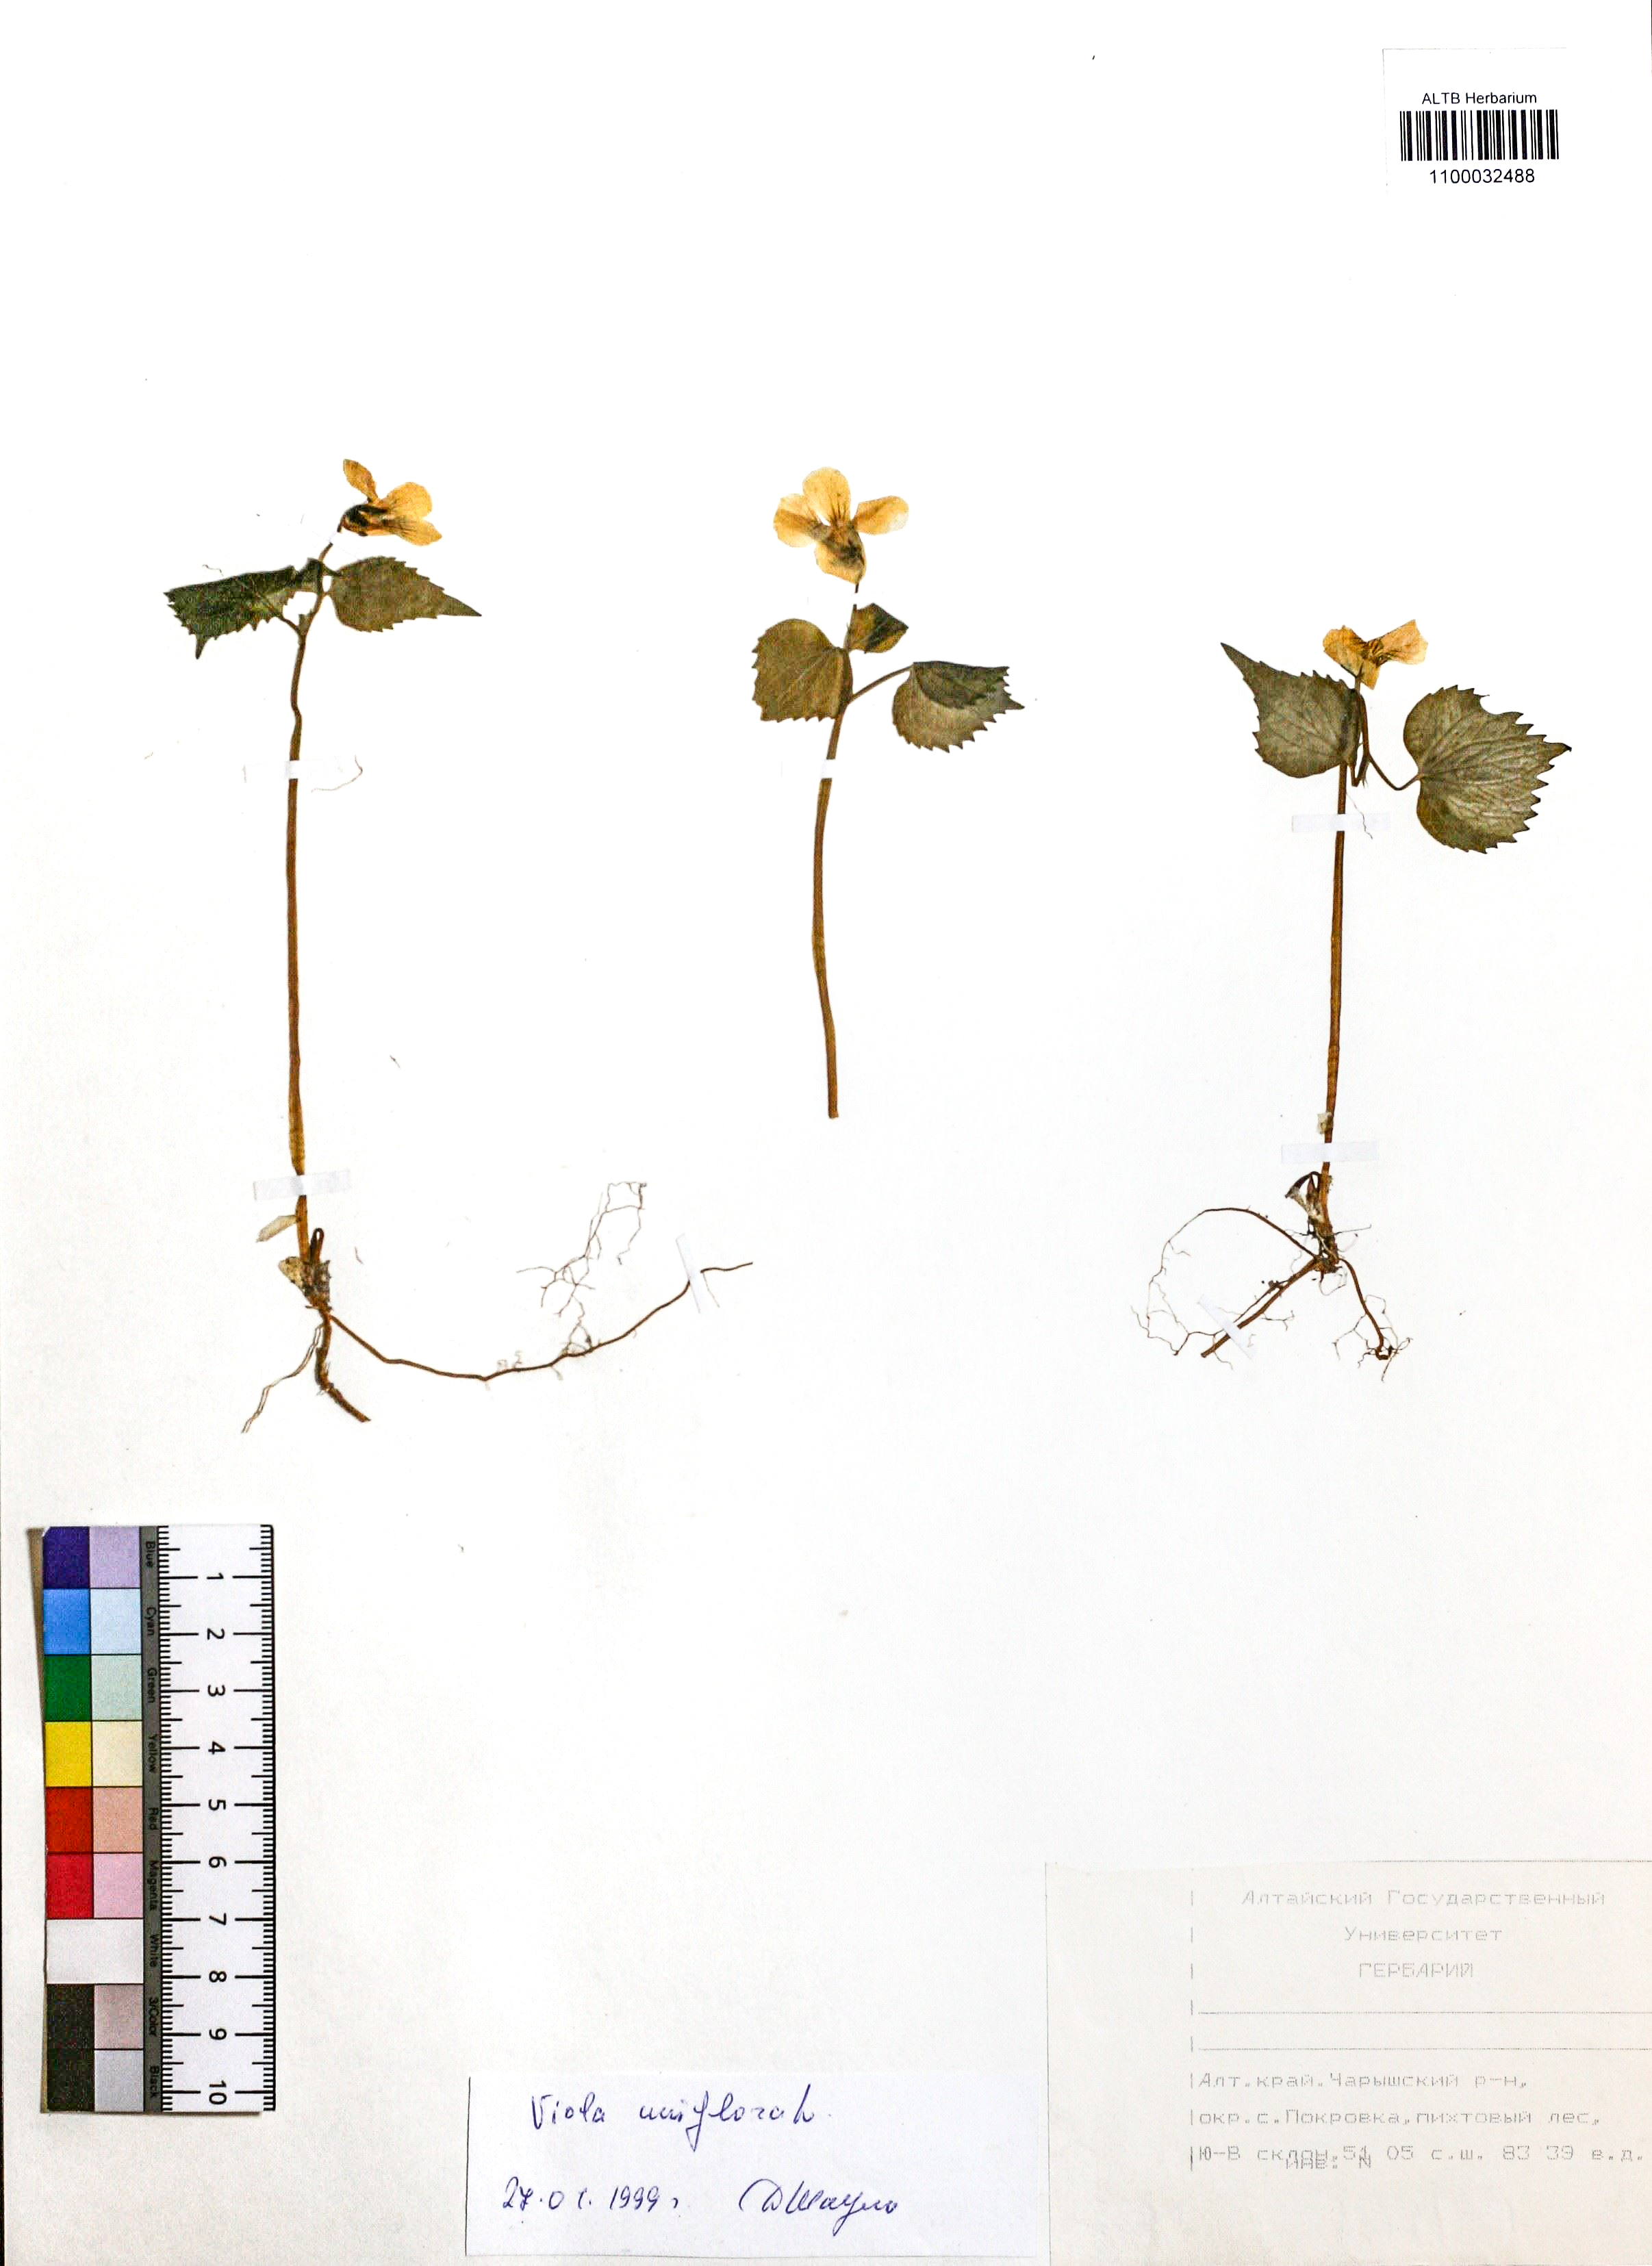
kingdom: Plantae
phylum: Tracheophyta
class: Magnoliopsida
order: Malpighiales
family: Violaceae
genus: Viola
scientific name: Viola uniflora
